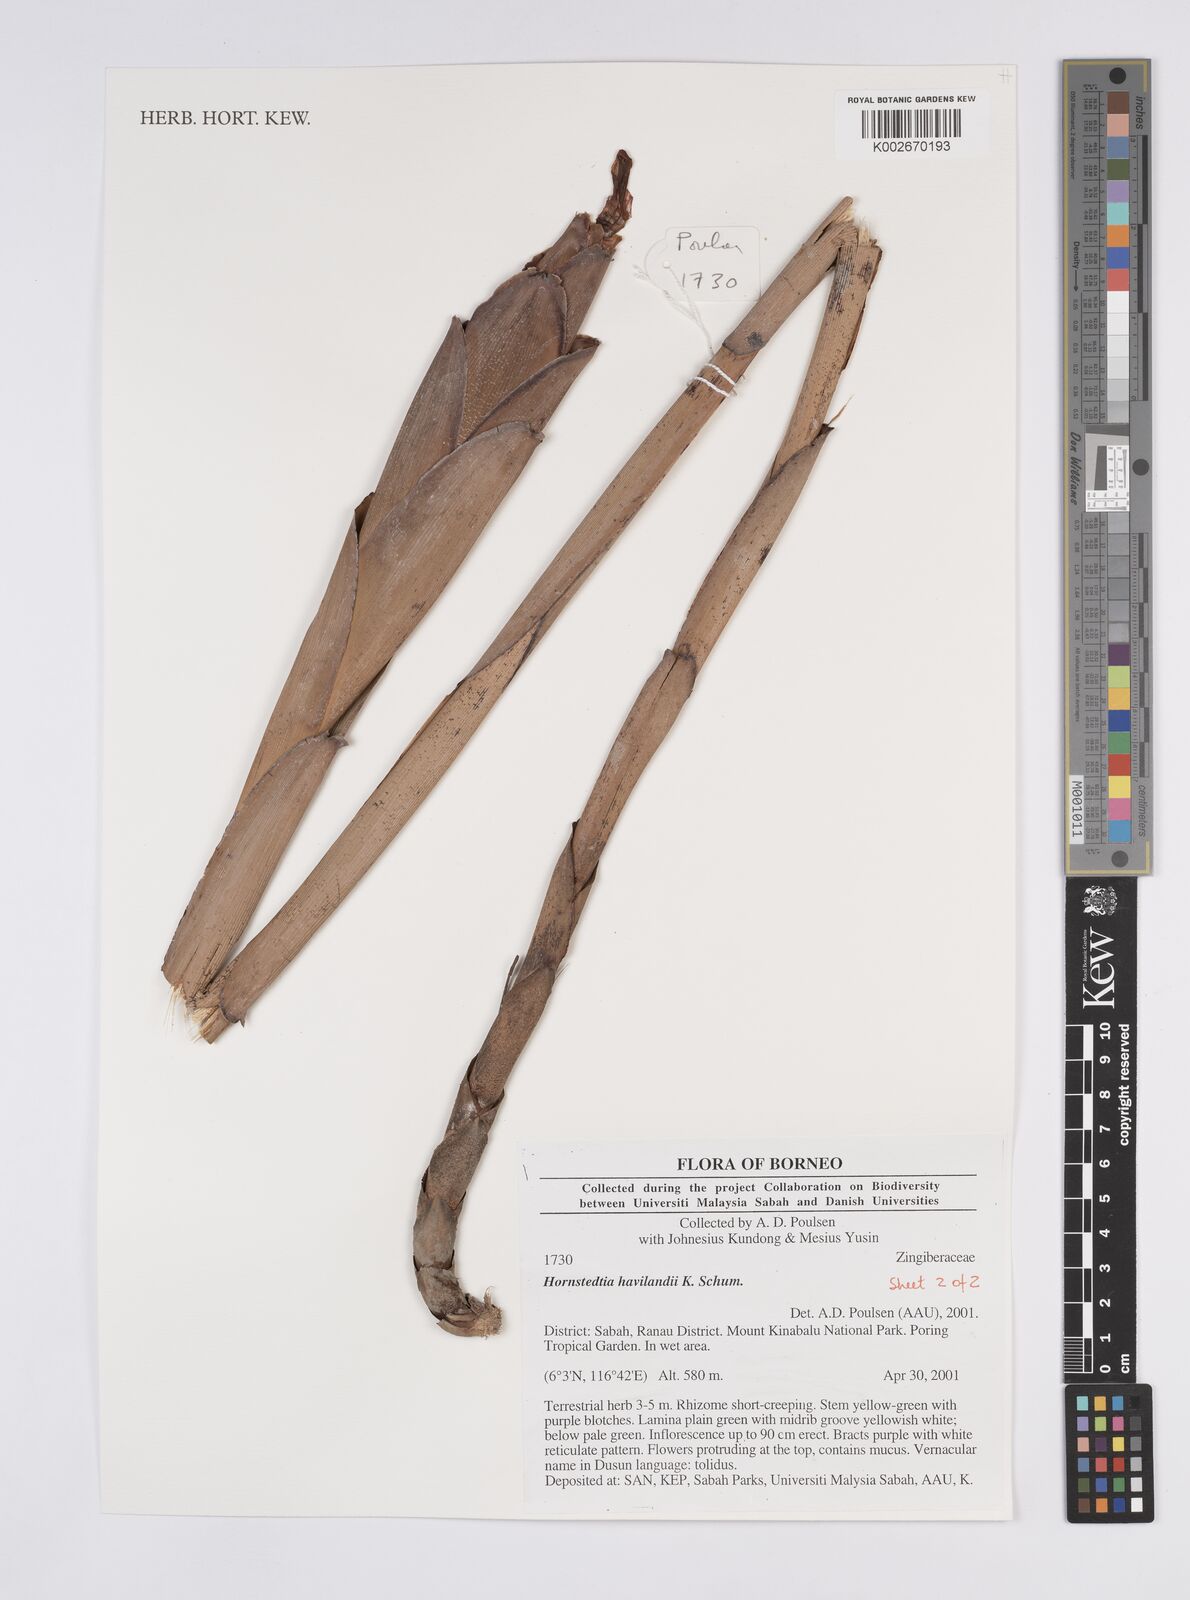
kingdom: Plantae
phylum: Tracheophyta
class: Liliopsida
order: Zingiberales
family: Zingiberaceae
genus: Hornstedtia
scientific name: Hornstedtia havilandii
